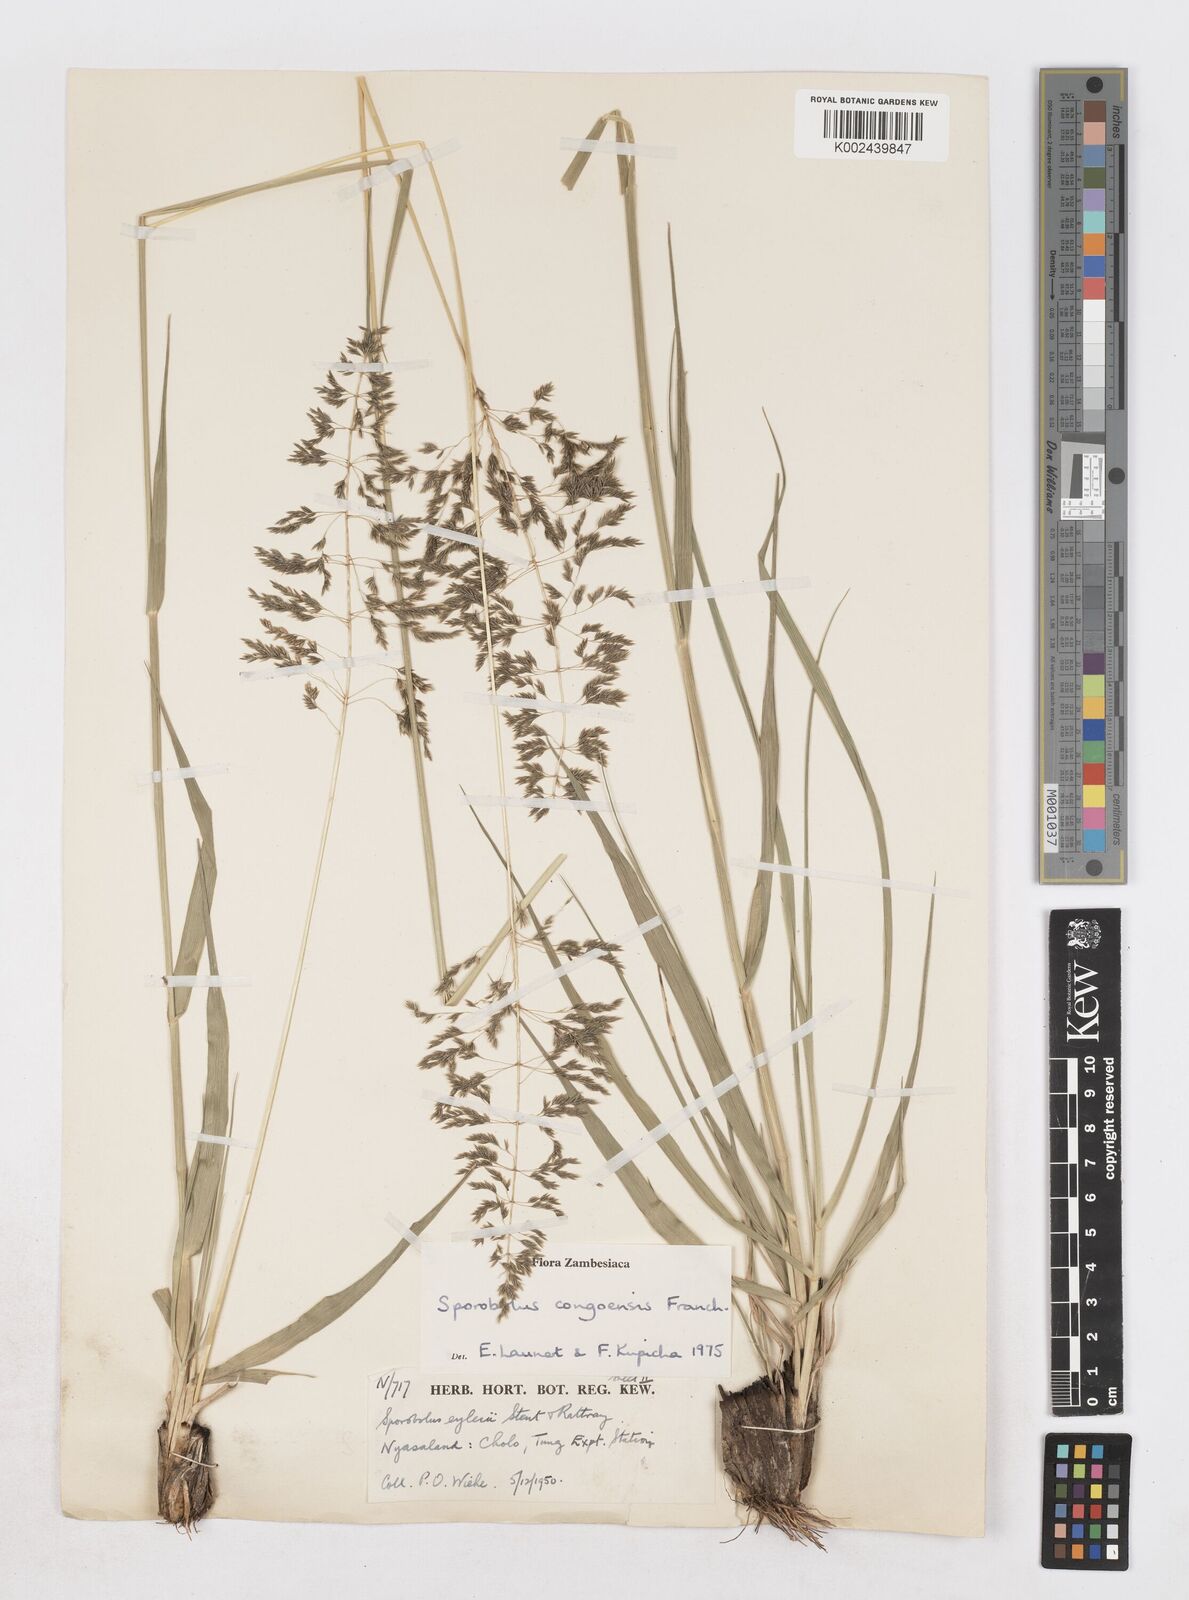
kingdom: Plantae
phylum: Tracheophyta
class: Liliopsida
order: Poales
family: Poaceae
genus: Sporobolus
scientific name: Sporobolus congoensis
